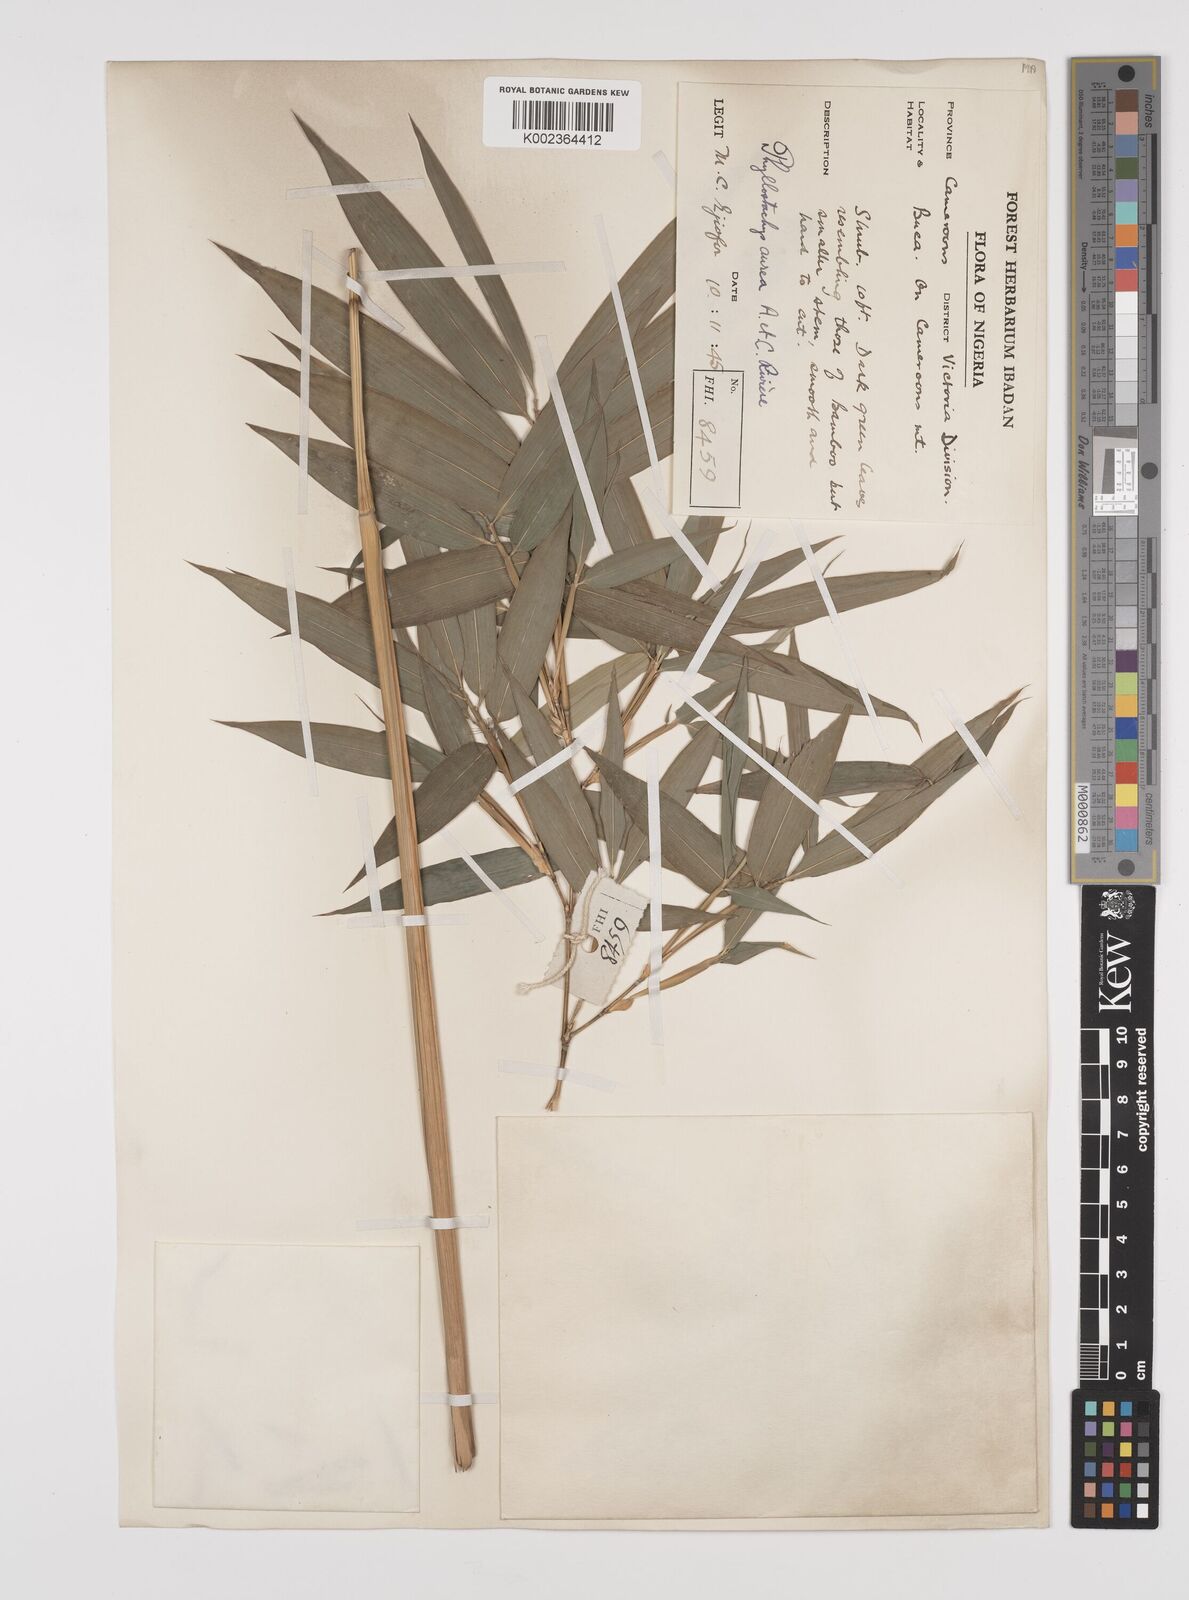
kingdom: Plantae
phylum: Tracheophyta
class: Liliopsida
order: Poales
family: Poaceae
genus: Phyllostachys
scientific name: Phyllostachys aurea
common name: Golden bamboo
